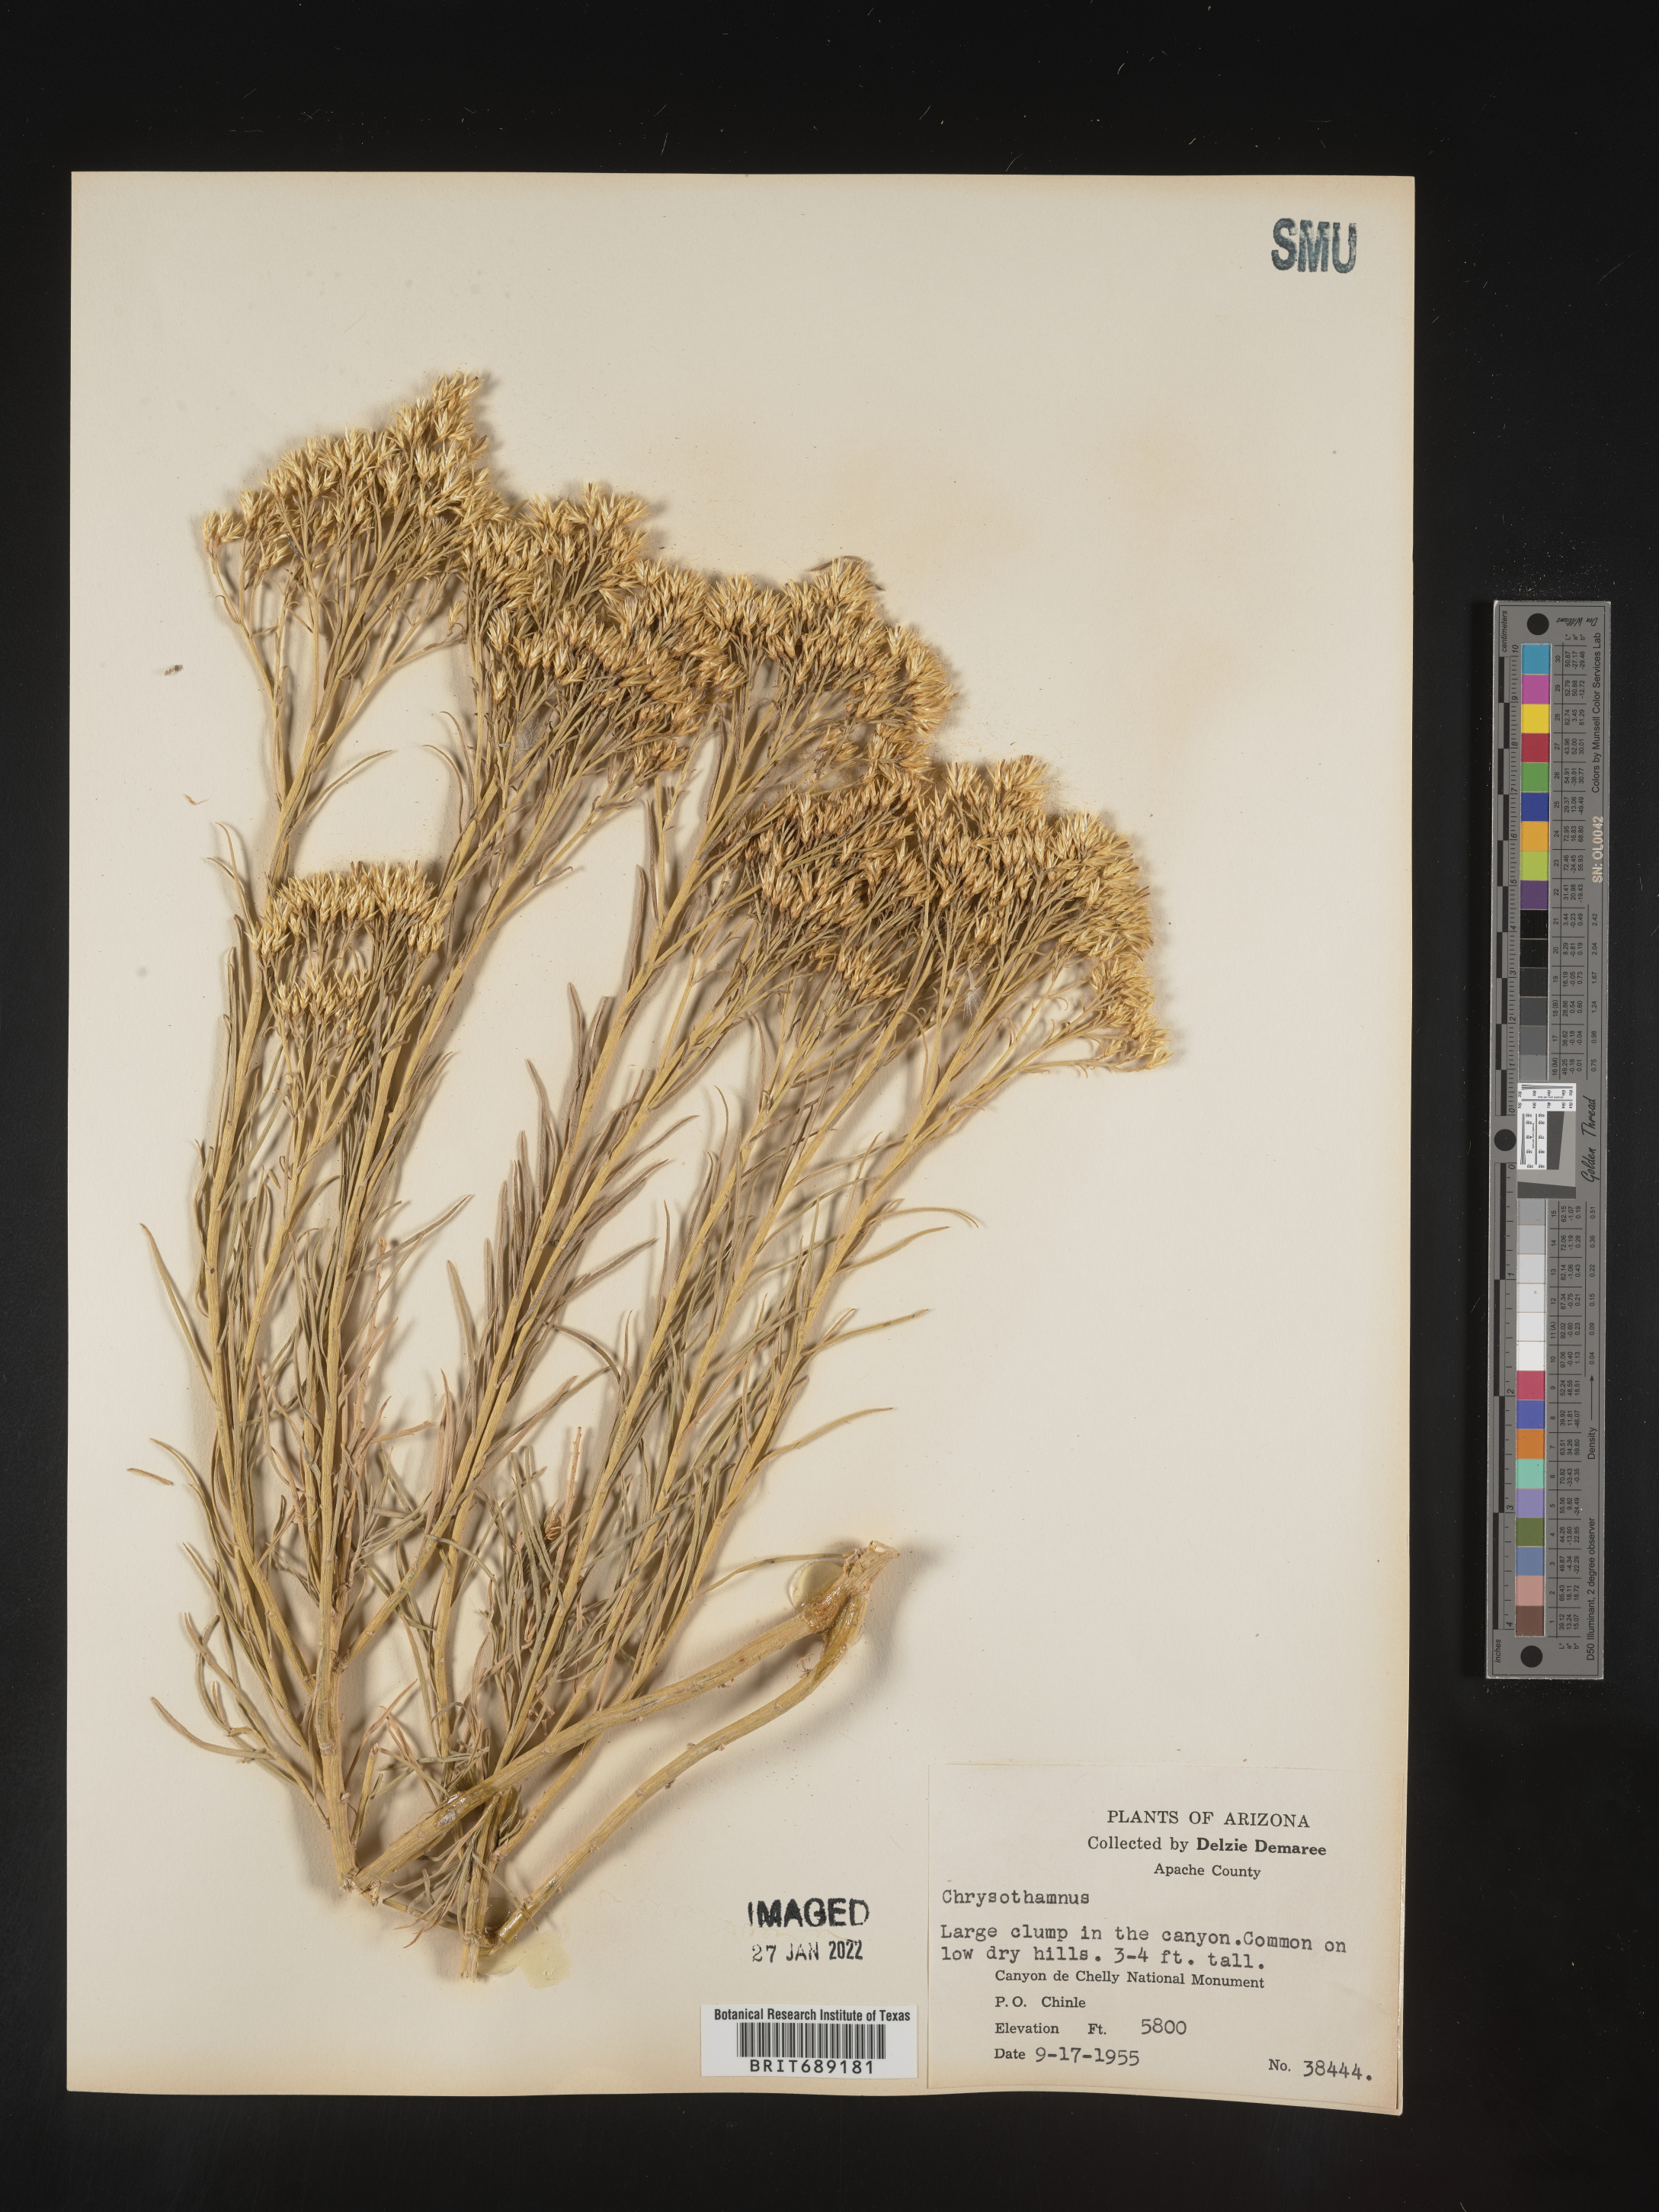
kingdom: Plantae
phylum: Tracheophyta
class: Magnoliopsida
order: Asterales
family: Asteraceae
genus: Chrysothamnus
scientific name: Chrysothamnus
